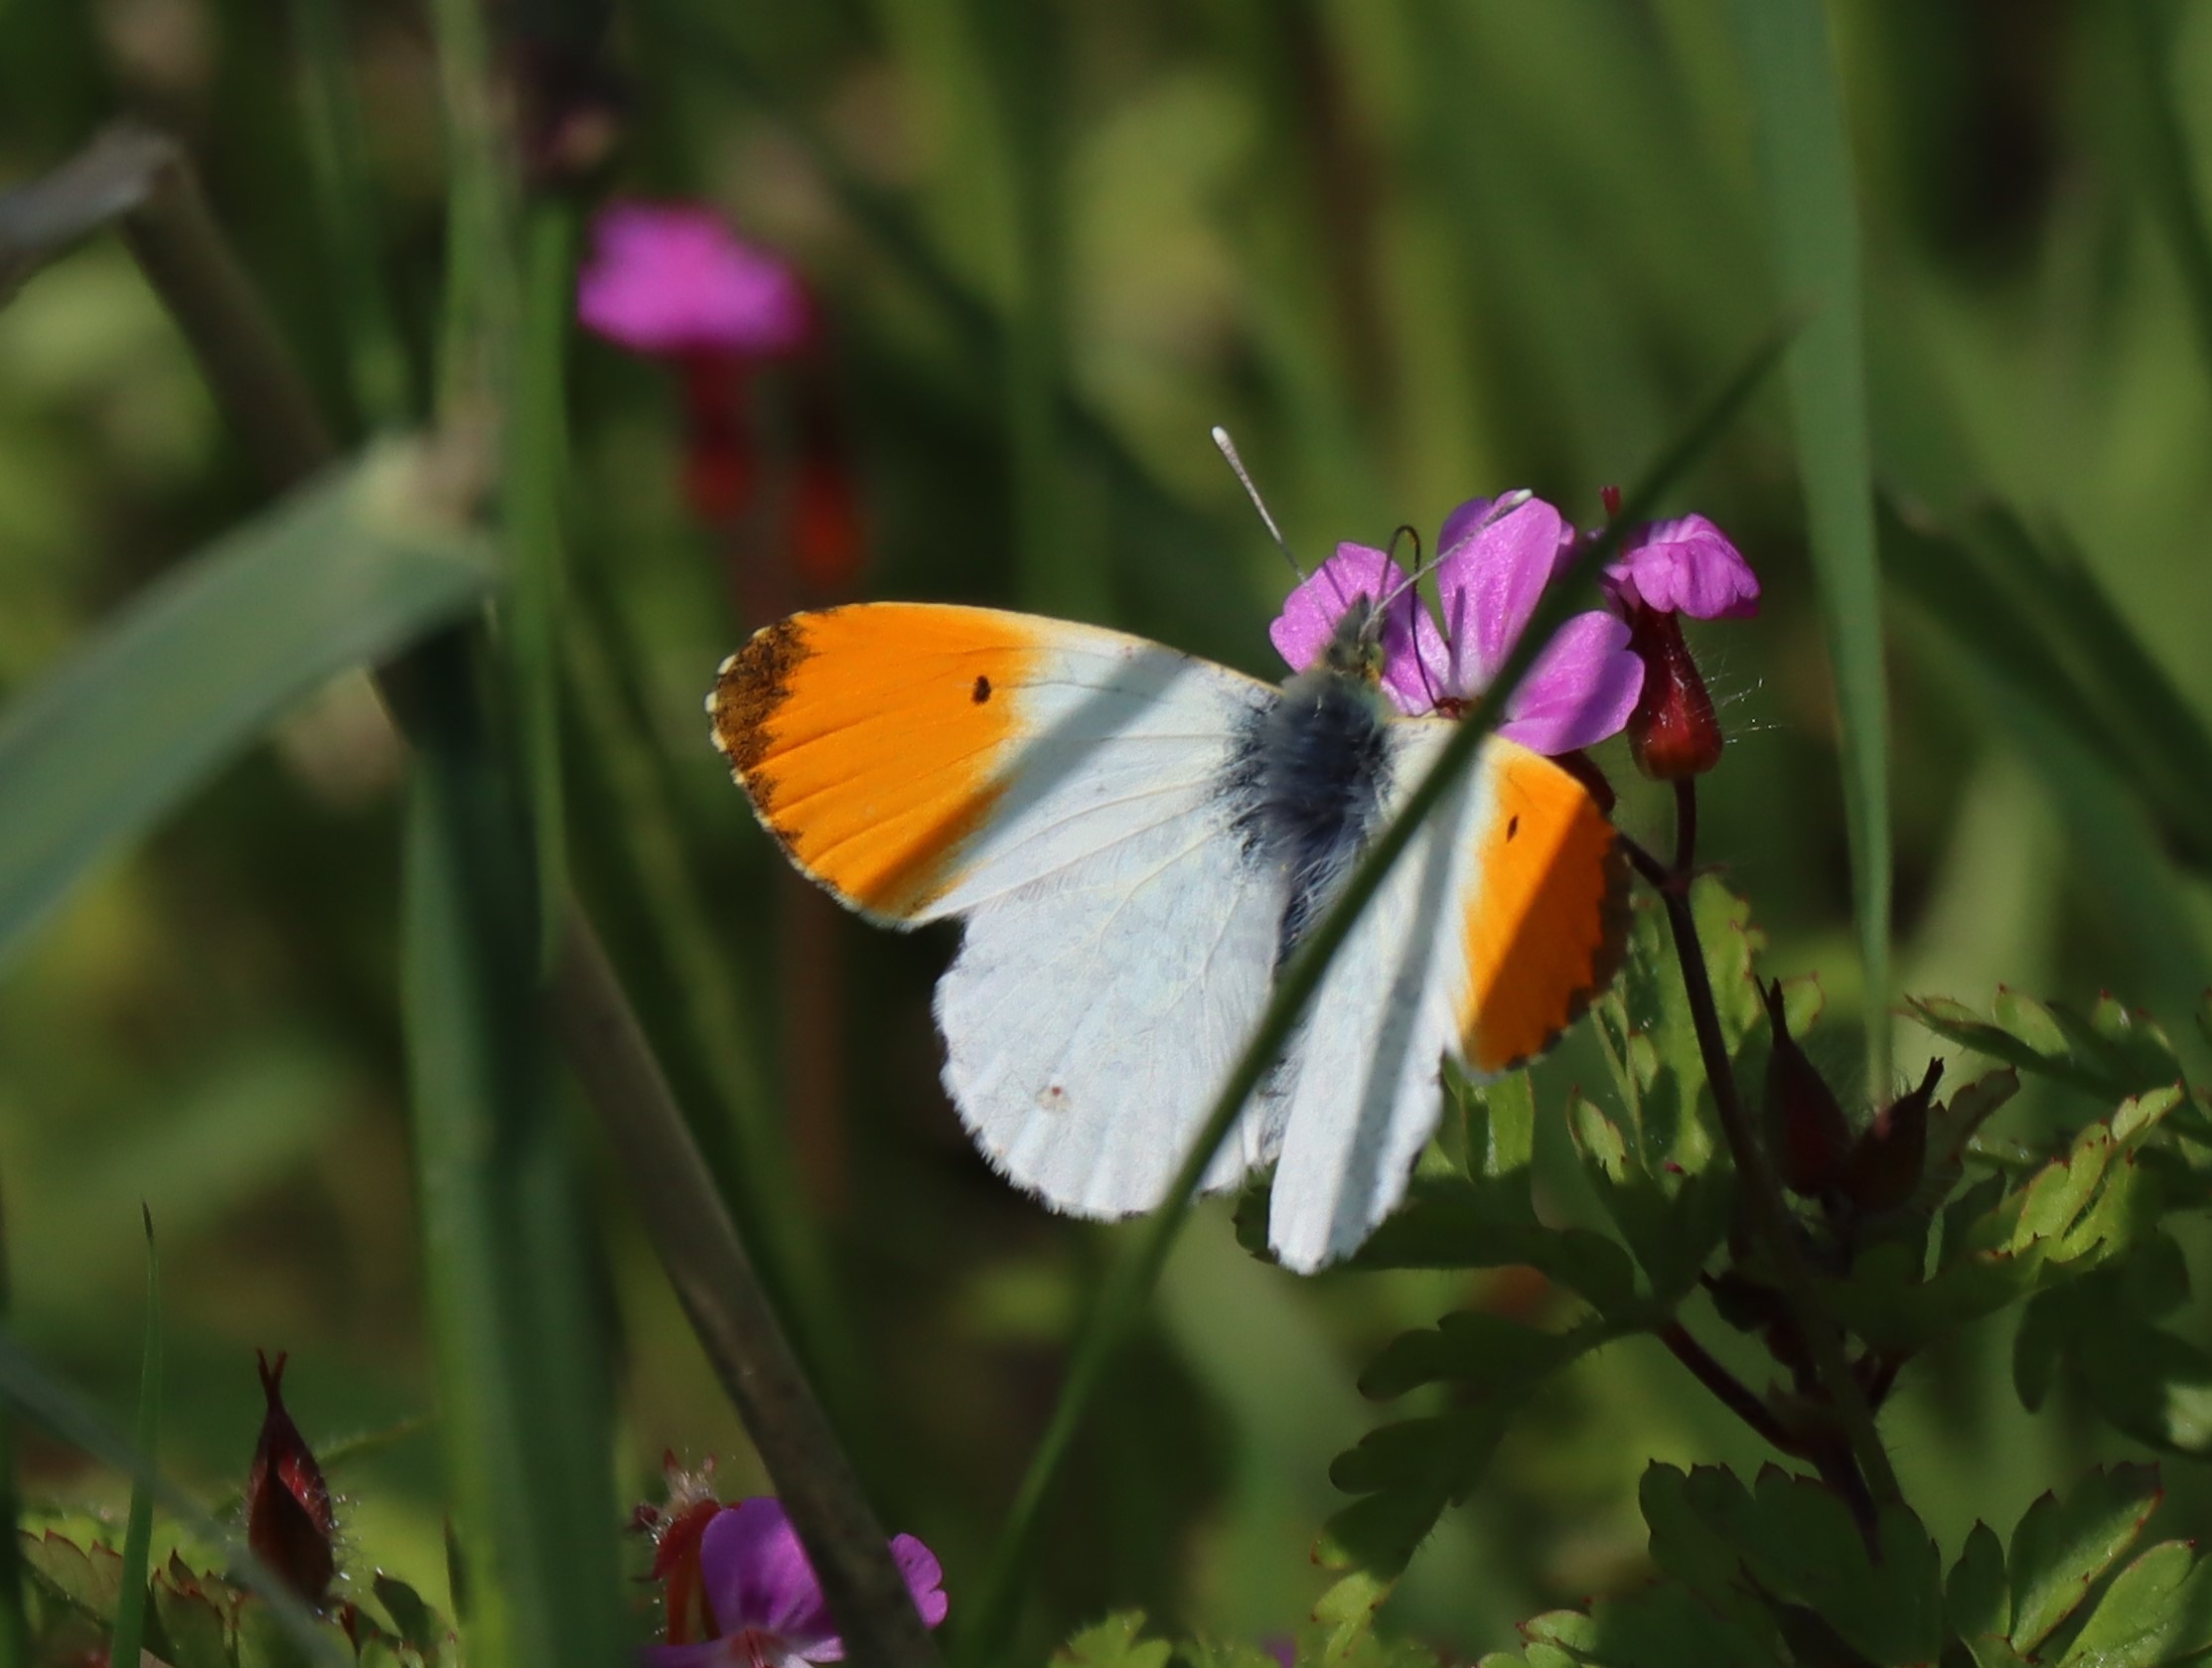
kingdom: Animalia
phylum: Arthropoda
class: Insecta
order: Lepidoptera
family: Pieridae
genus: Anthocharis
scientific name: Anthocharis cardamines
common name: Aurora
